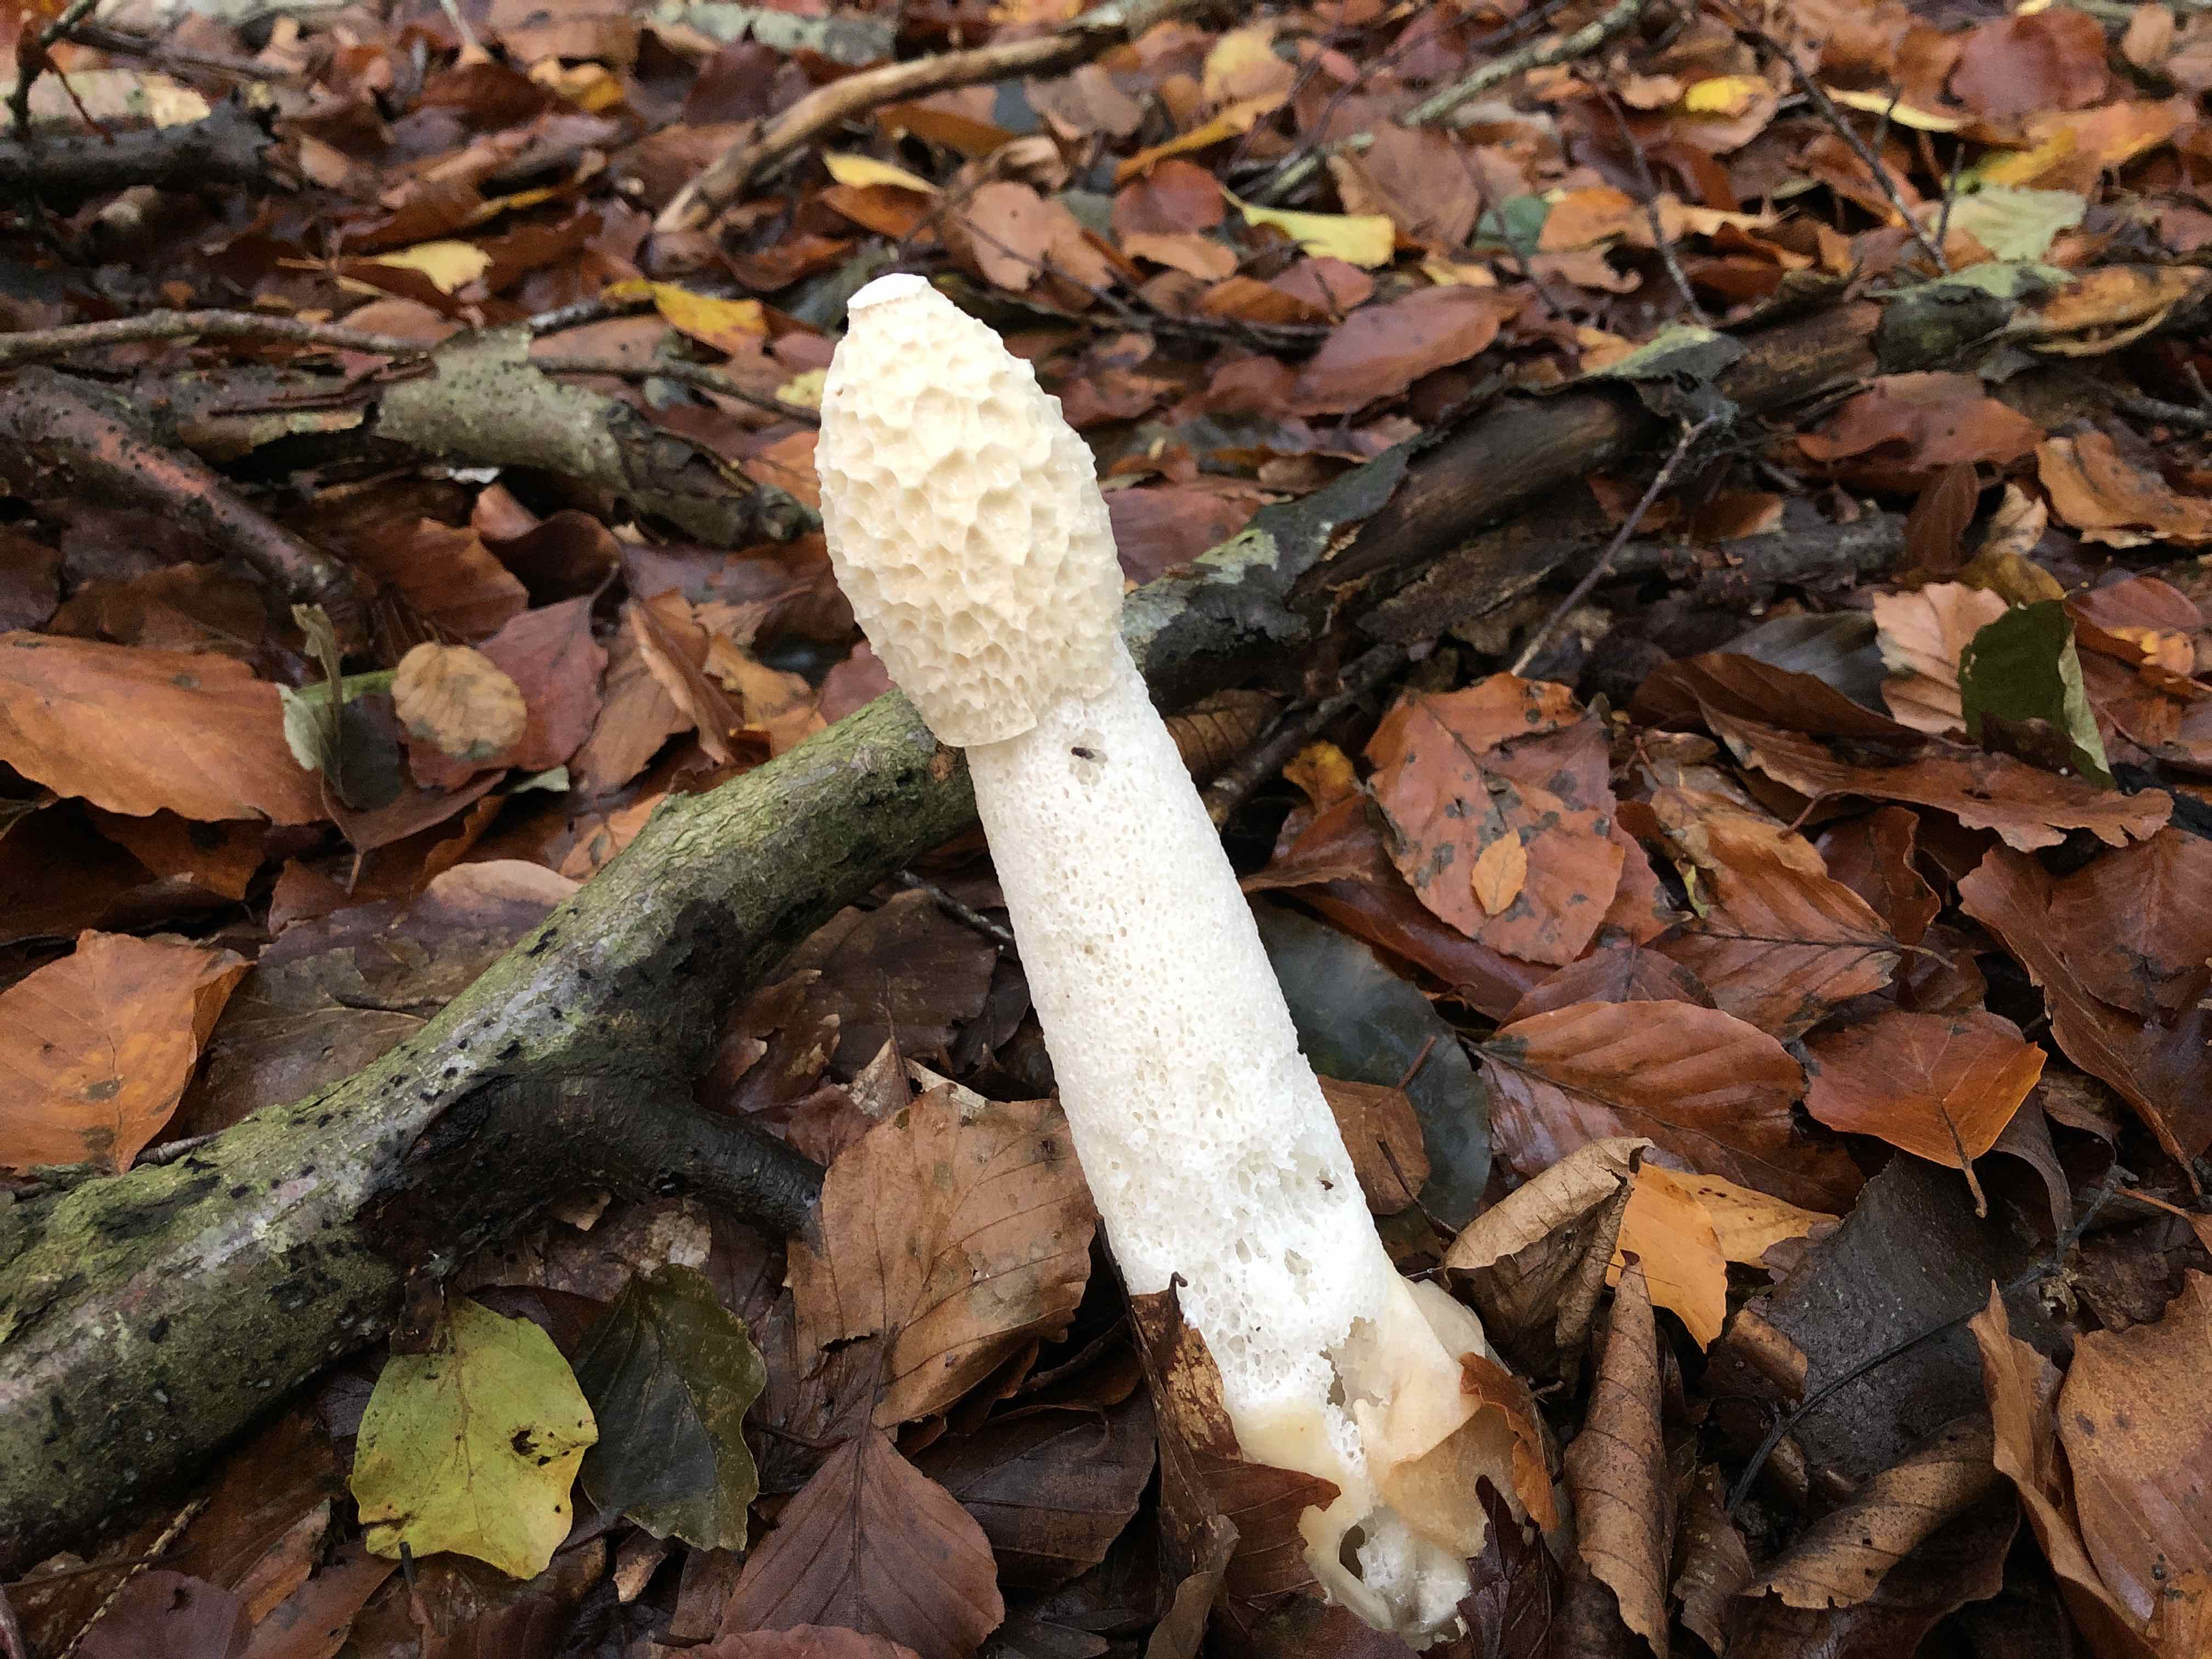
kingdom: Fungi
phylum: Basidiomycota
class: Agaricomycetes
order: Phallales
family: Phallaceae
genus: Phallus
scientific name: Phallus impudicus
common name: almindelig stinksvamp
